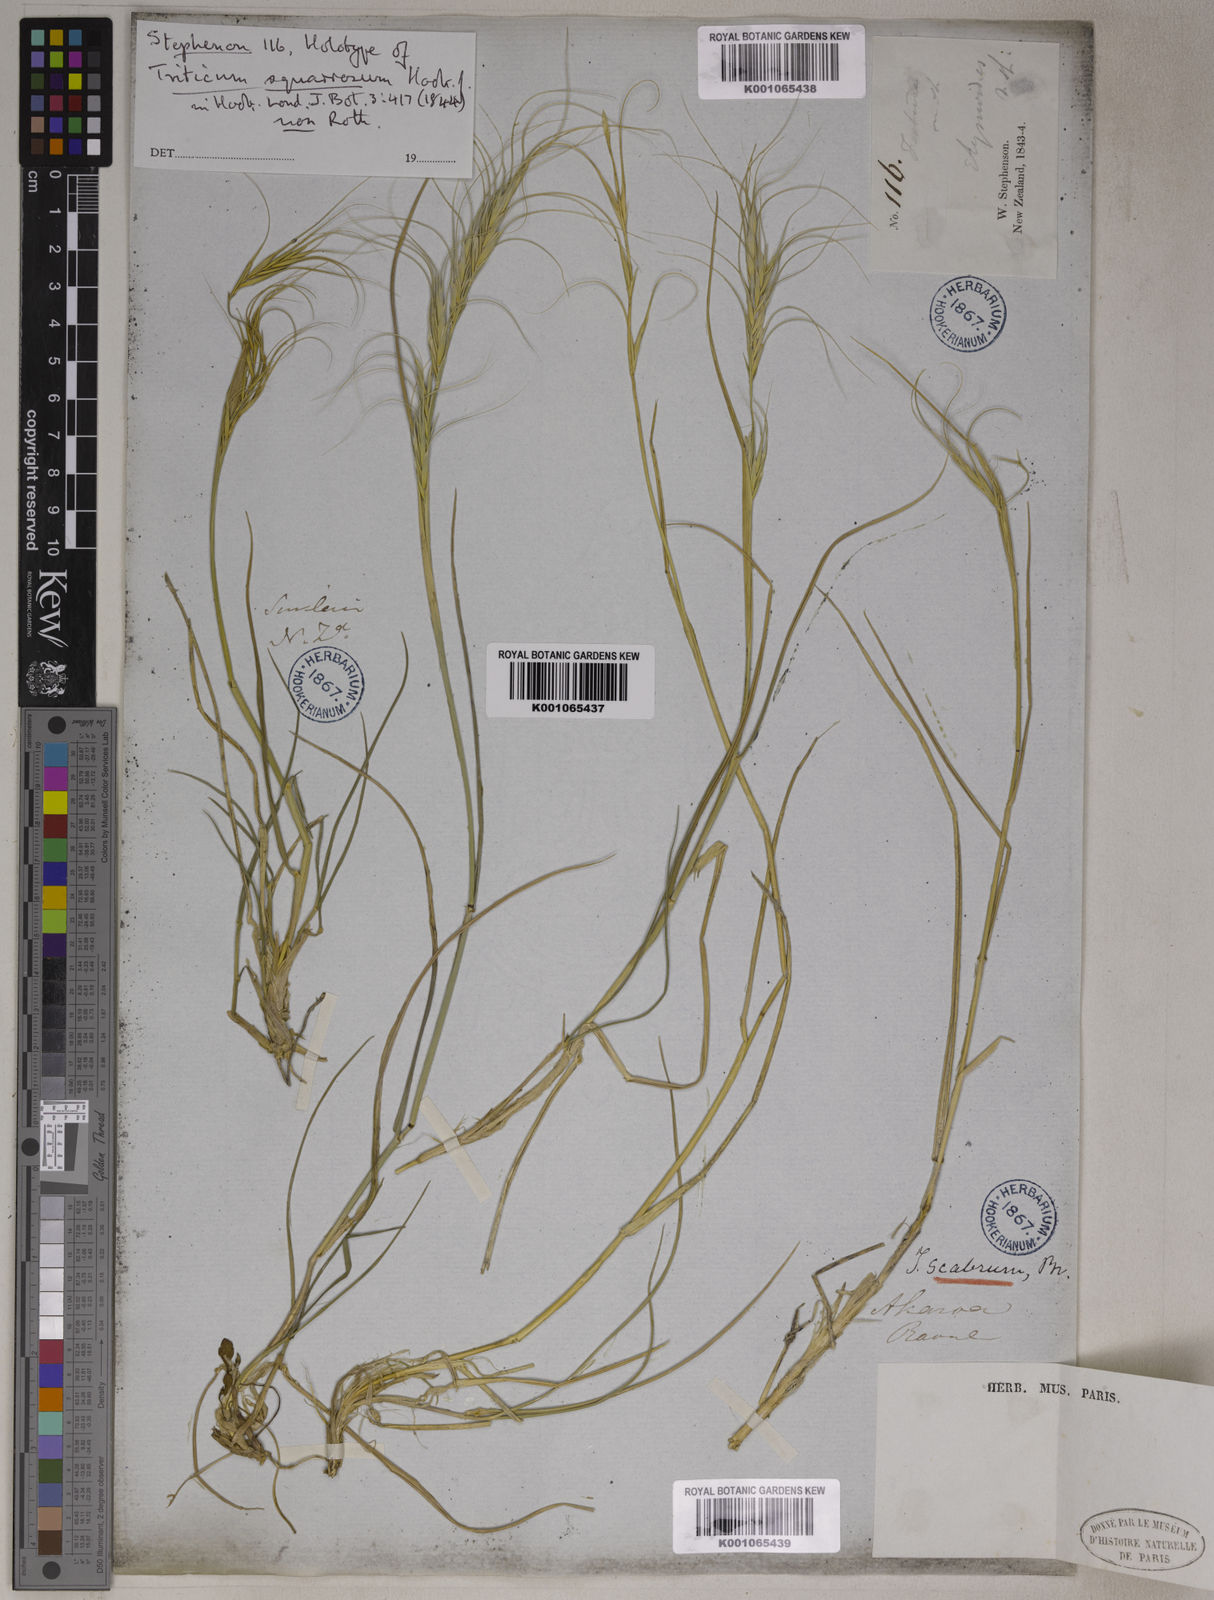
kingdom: Plantae
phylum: Tracheophyta
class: Liliopsida
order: Poales
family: Poaceae
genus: Elymus
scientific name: Elymus
